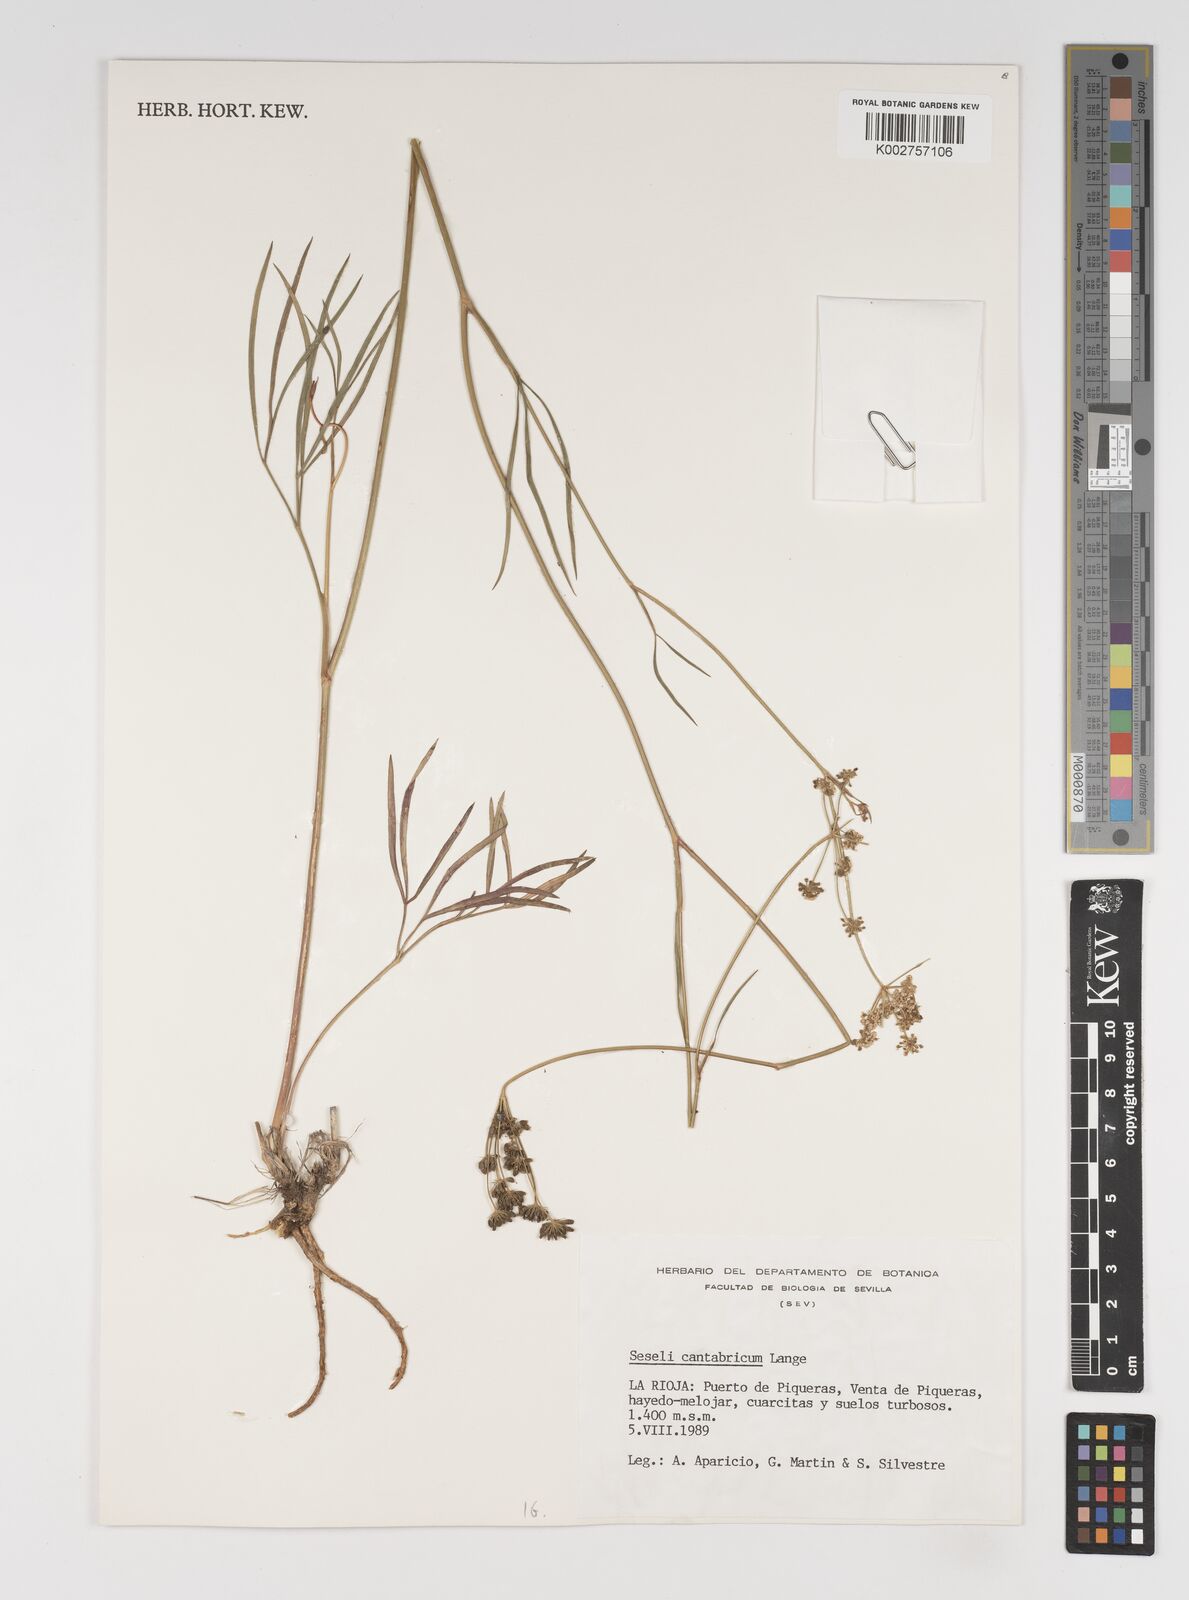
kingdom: Plantae
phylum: Tracheophyta
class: Magnoliopsida
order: Apiales
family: Apiaceae
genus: Seseli
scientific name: Seseli montanum
